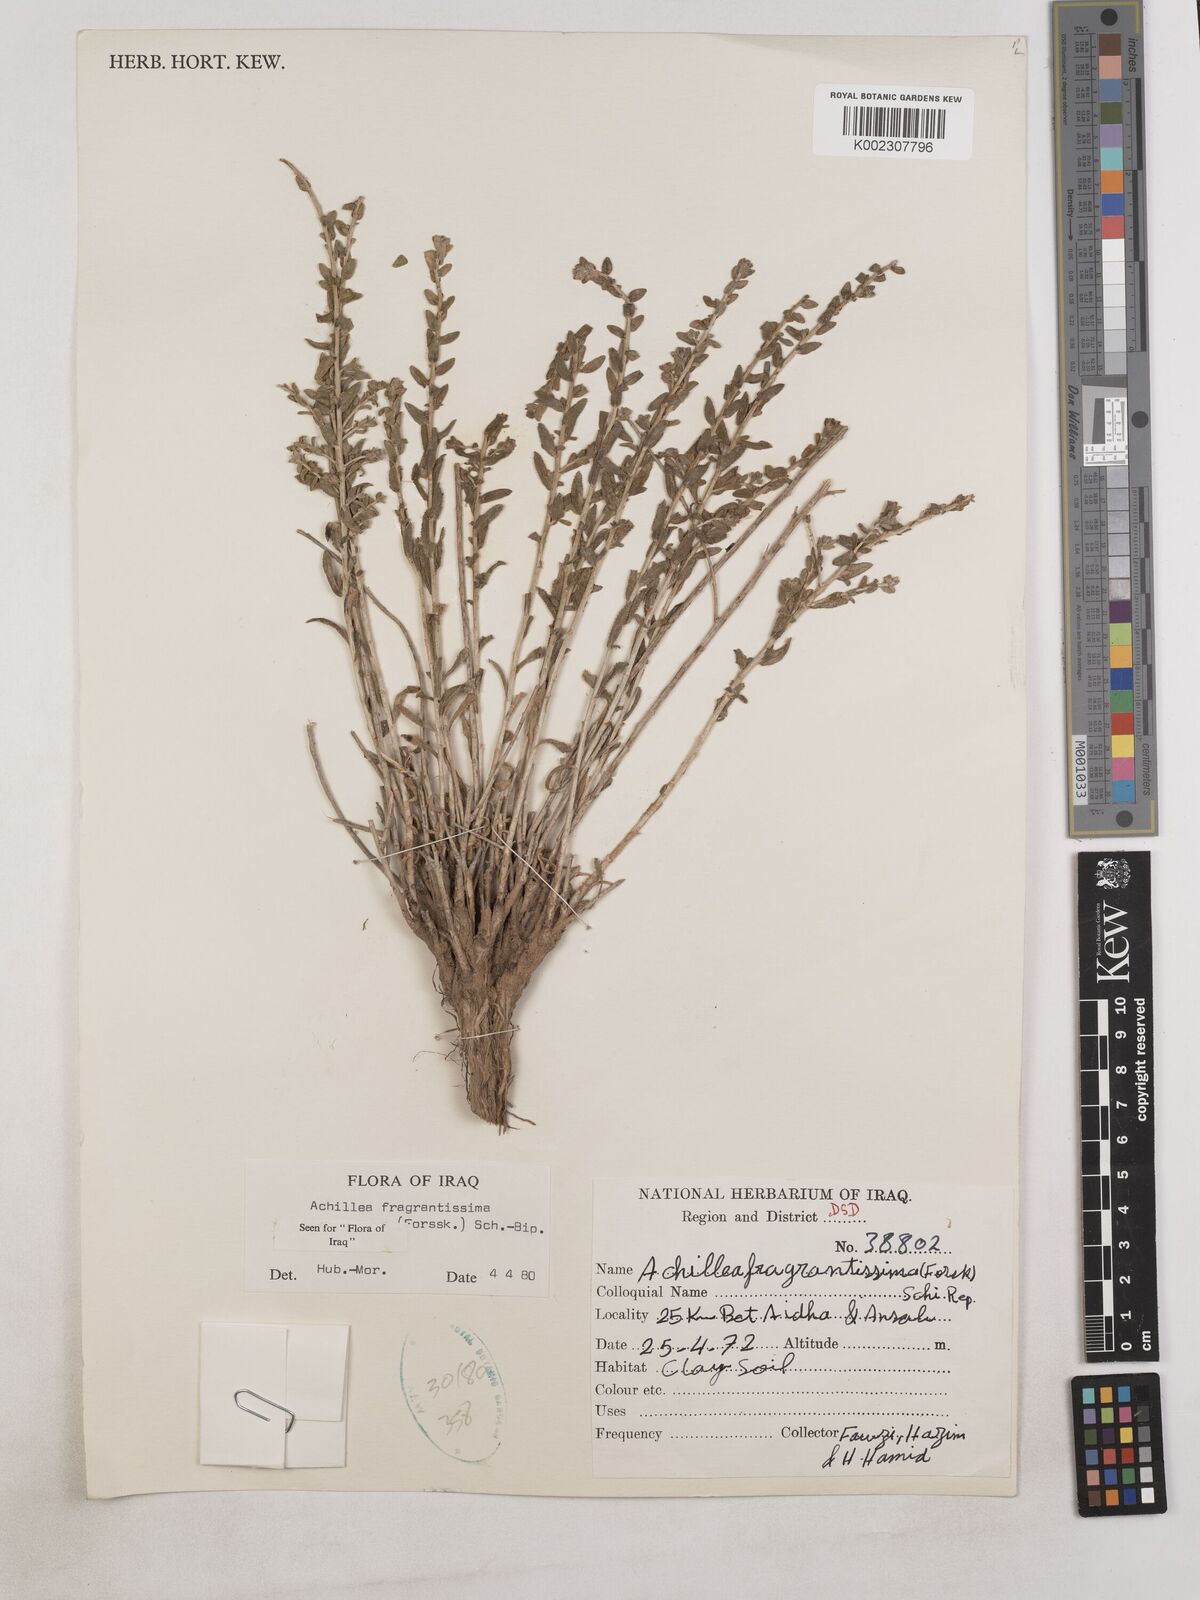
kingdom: Plantae
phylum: Tracheophyta
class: Magnoliopsida
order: Asterales
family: Asteraceae
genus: Achillea
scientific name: Achillea fragrantissima
